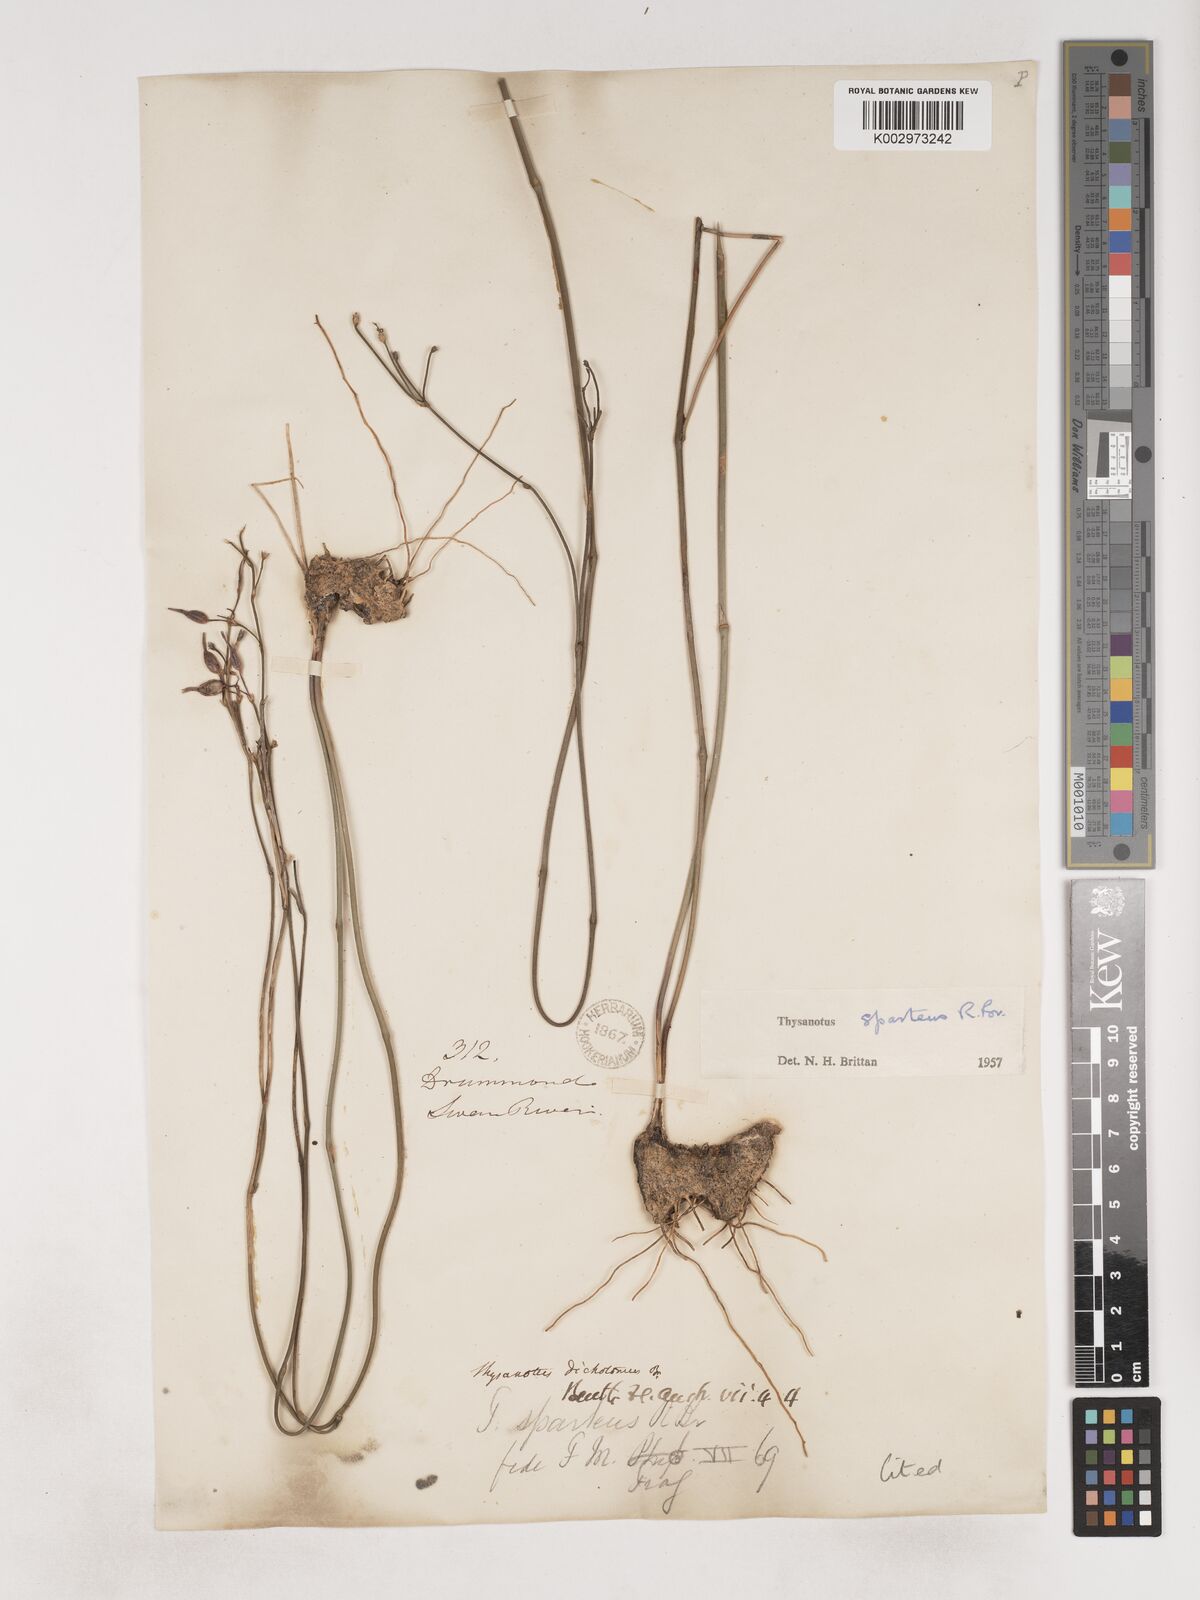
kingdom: Plantae
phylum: Tracheophyta
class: Liliopsida
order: Asparagales
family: Asparagaceae
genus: Thysanotus
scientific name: Thysanotus sparteus
